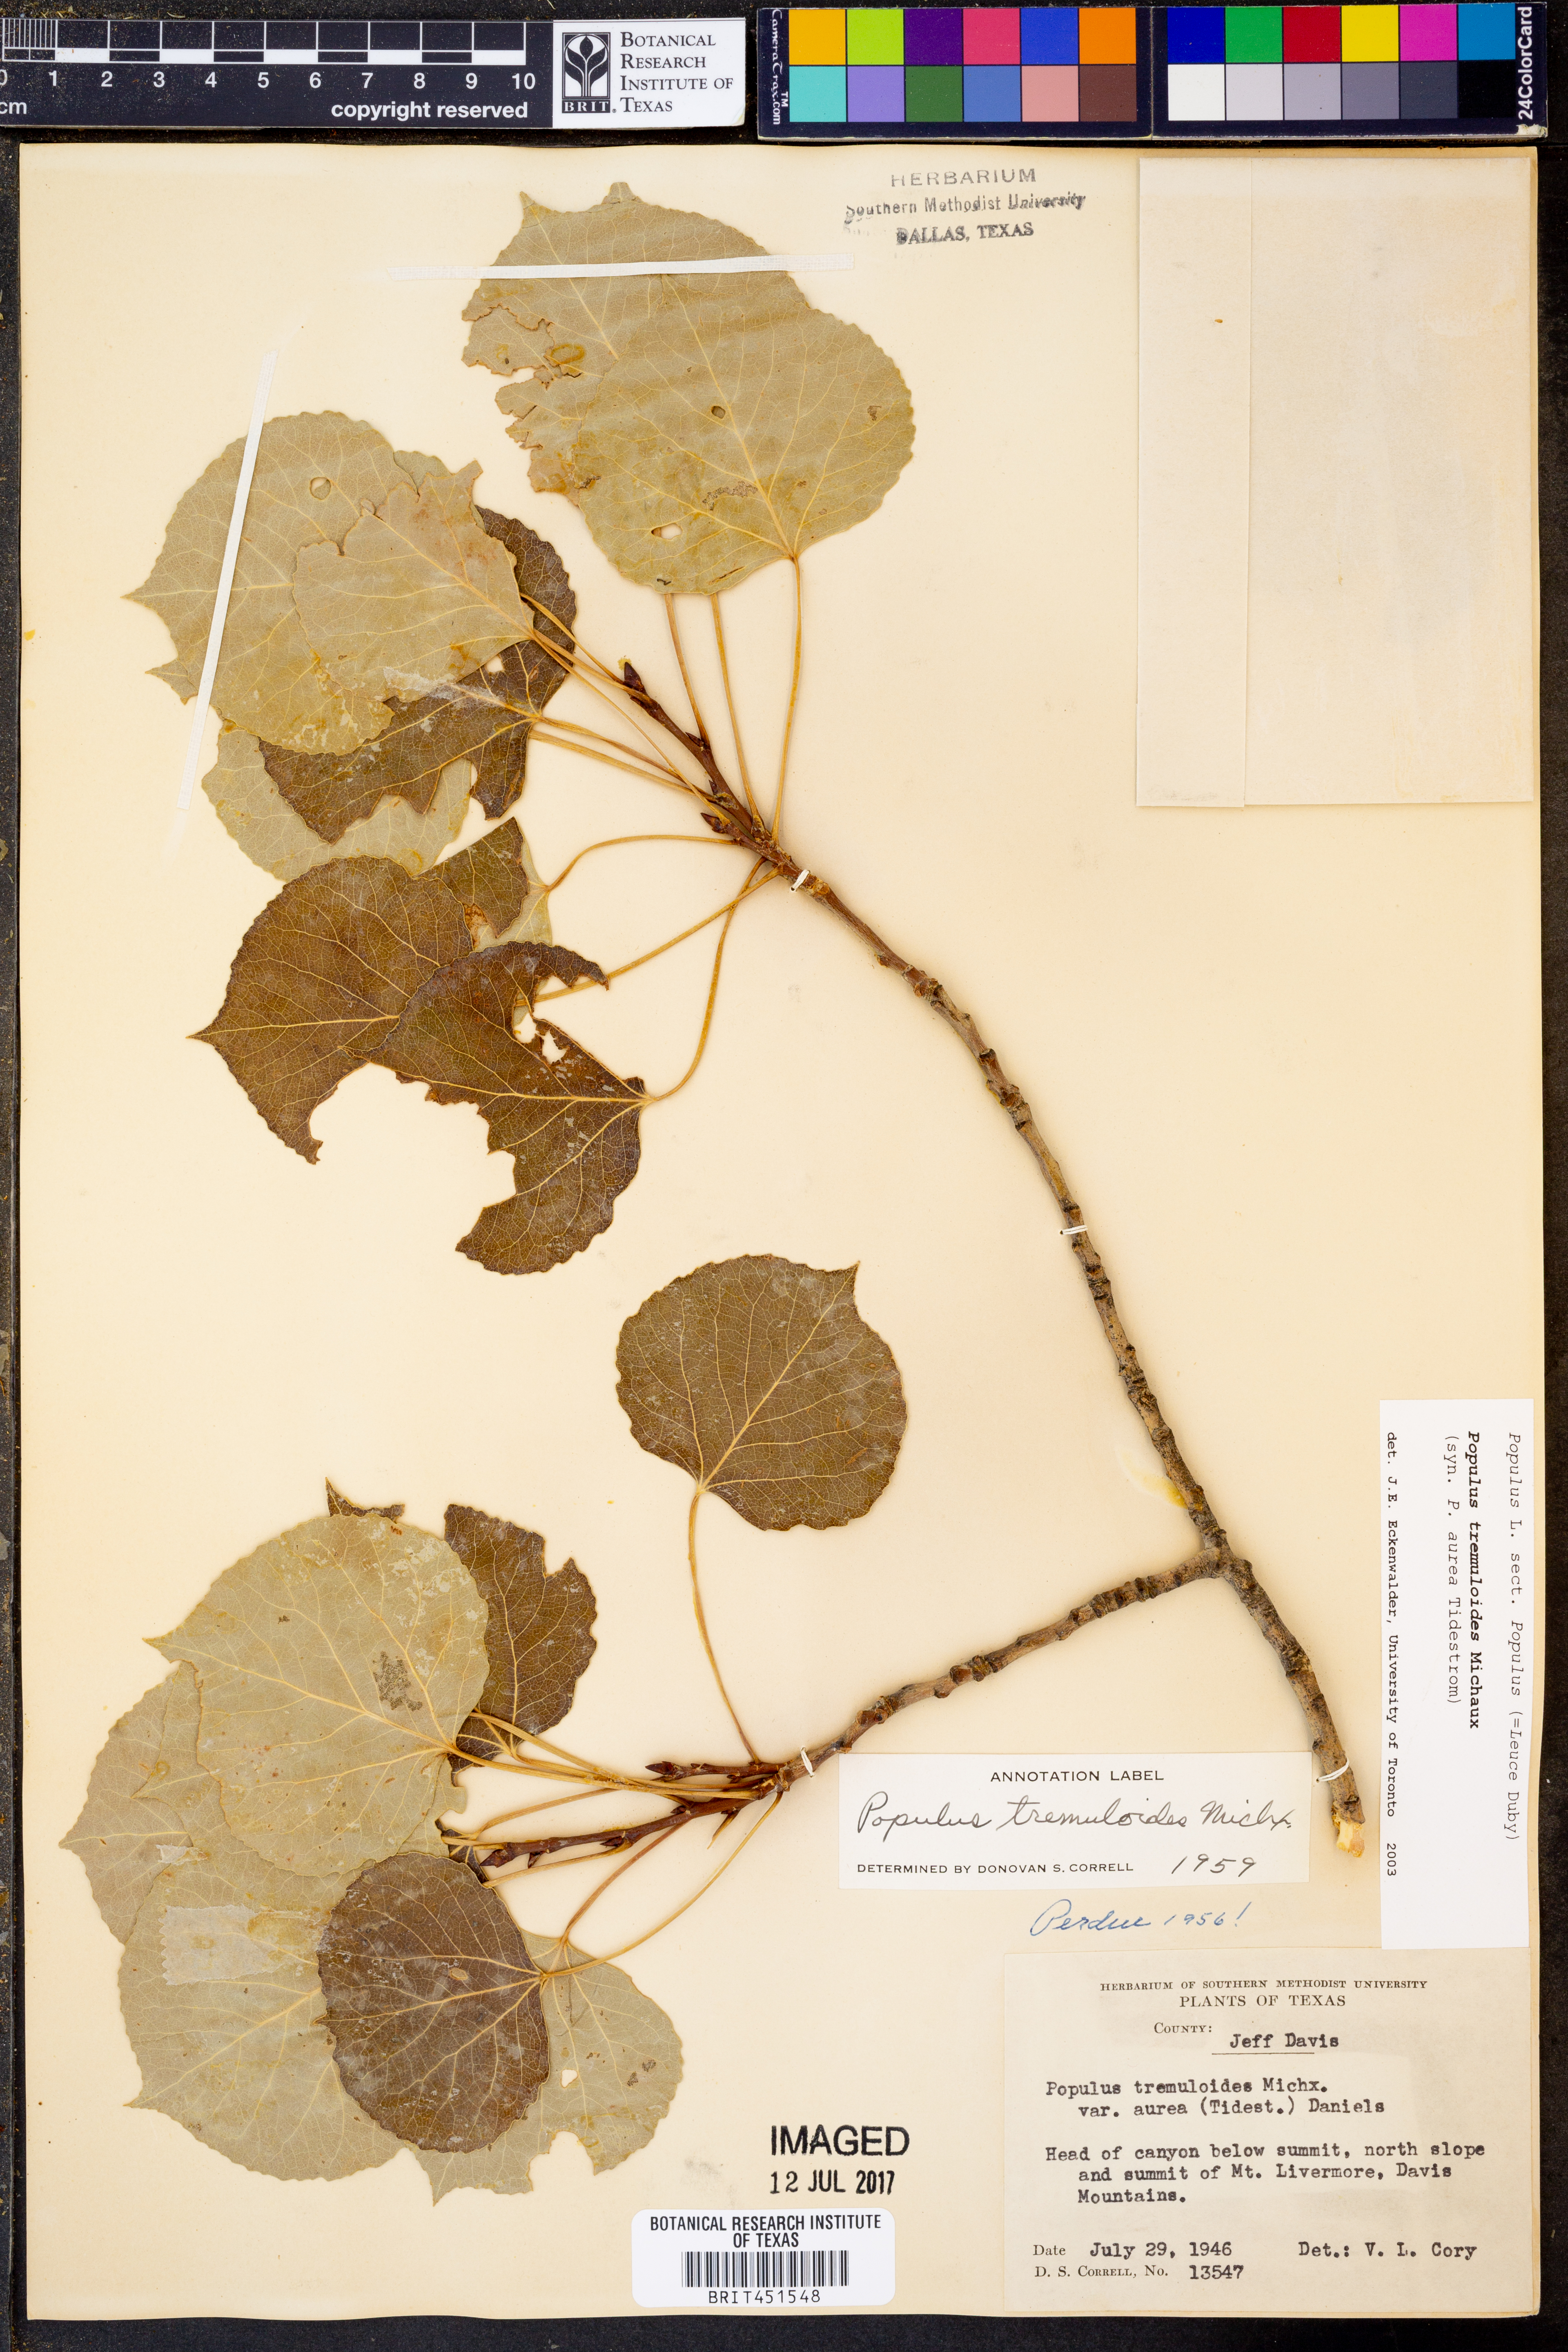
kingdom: Plantae
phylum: Tracheophyta
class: Magnoliopsida
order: Malpighiales
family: Salicaceae
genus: Populus
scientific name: Populus tremuloides
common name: Quaking aspen
